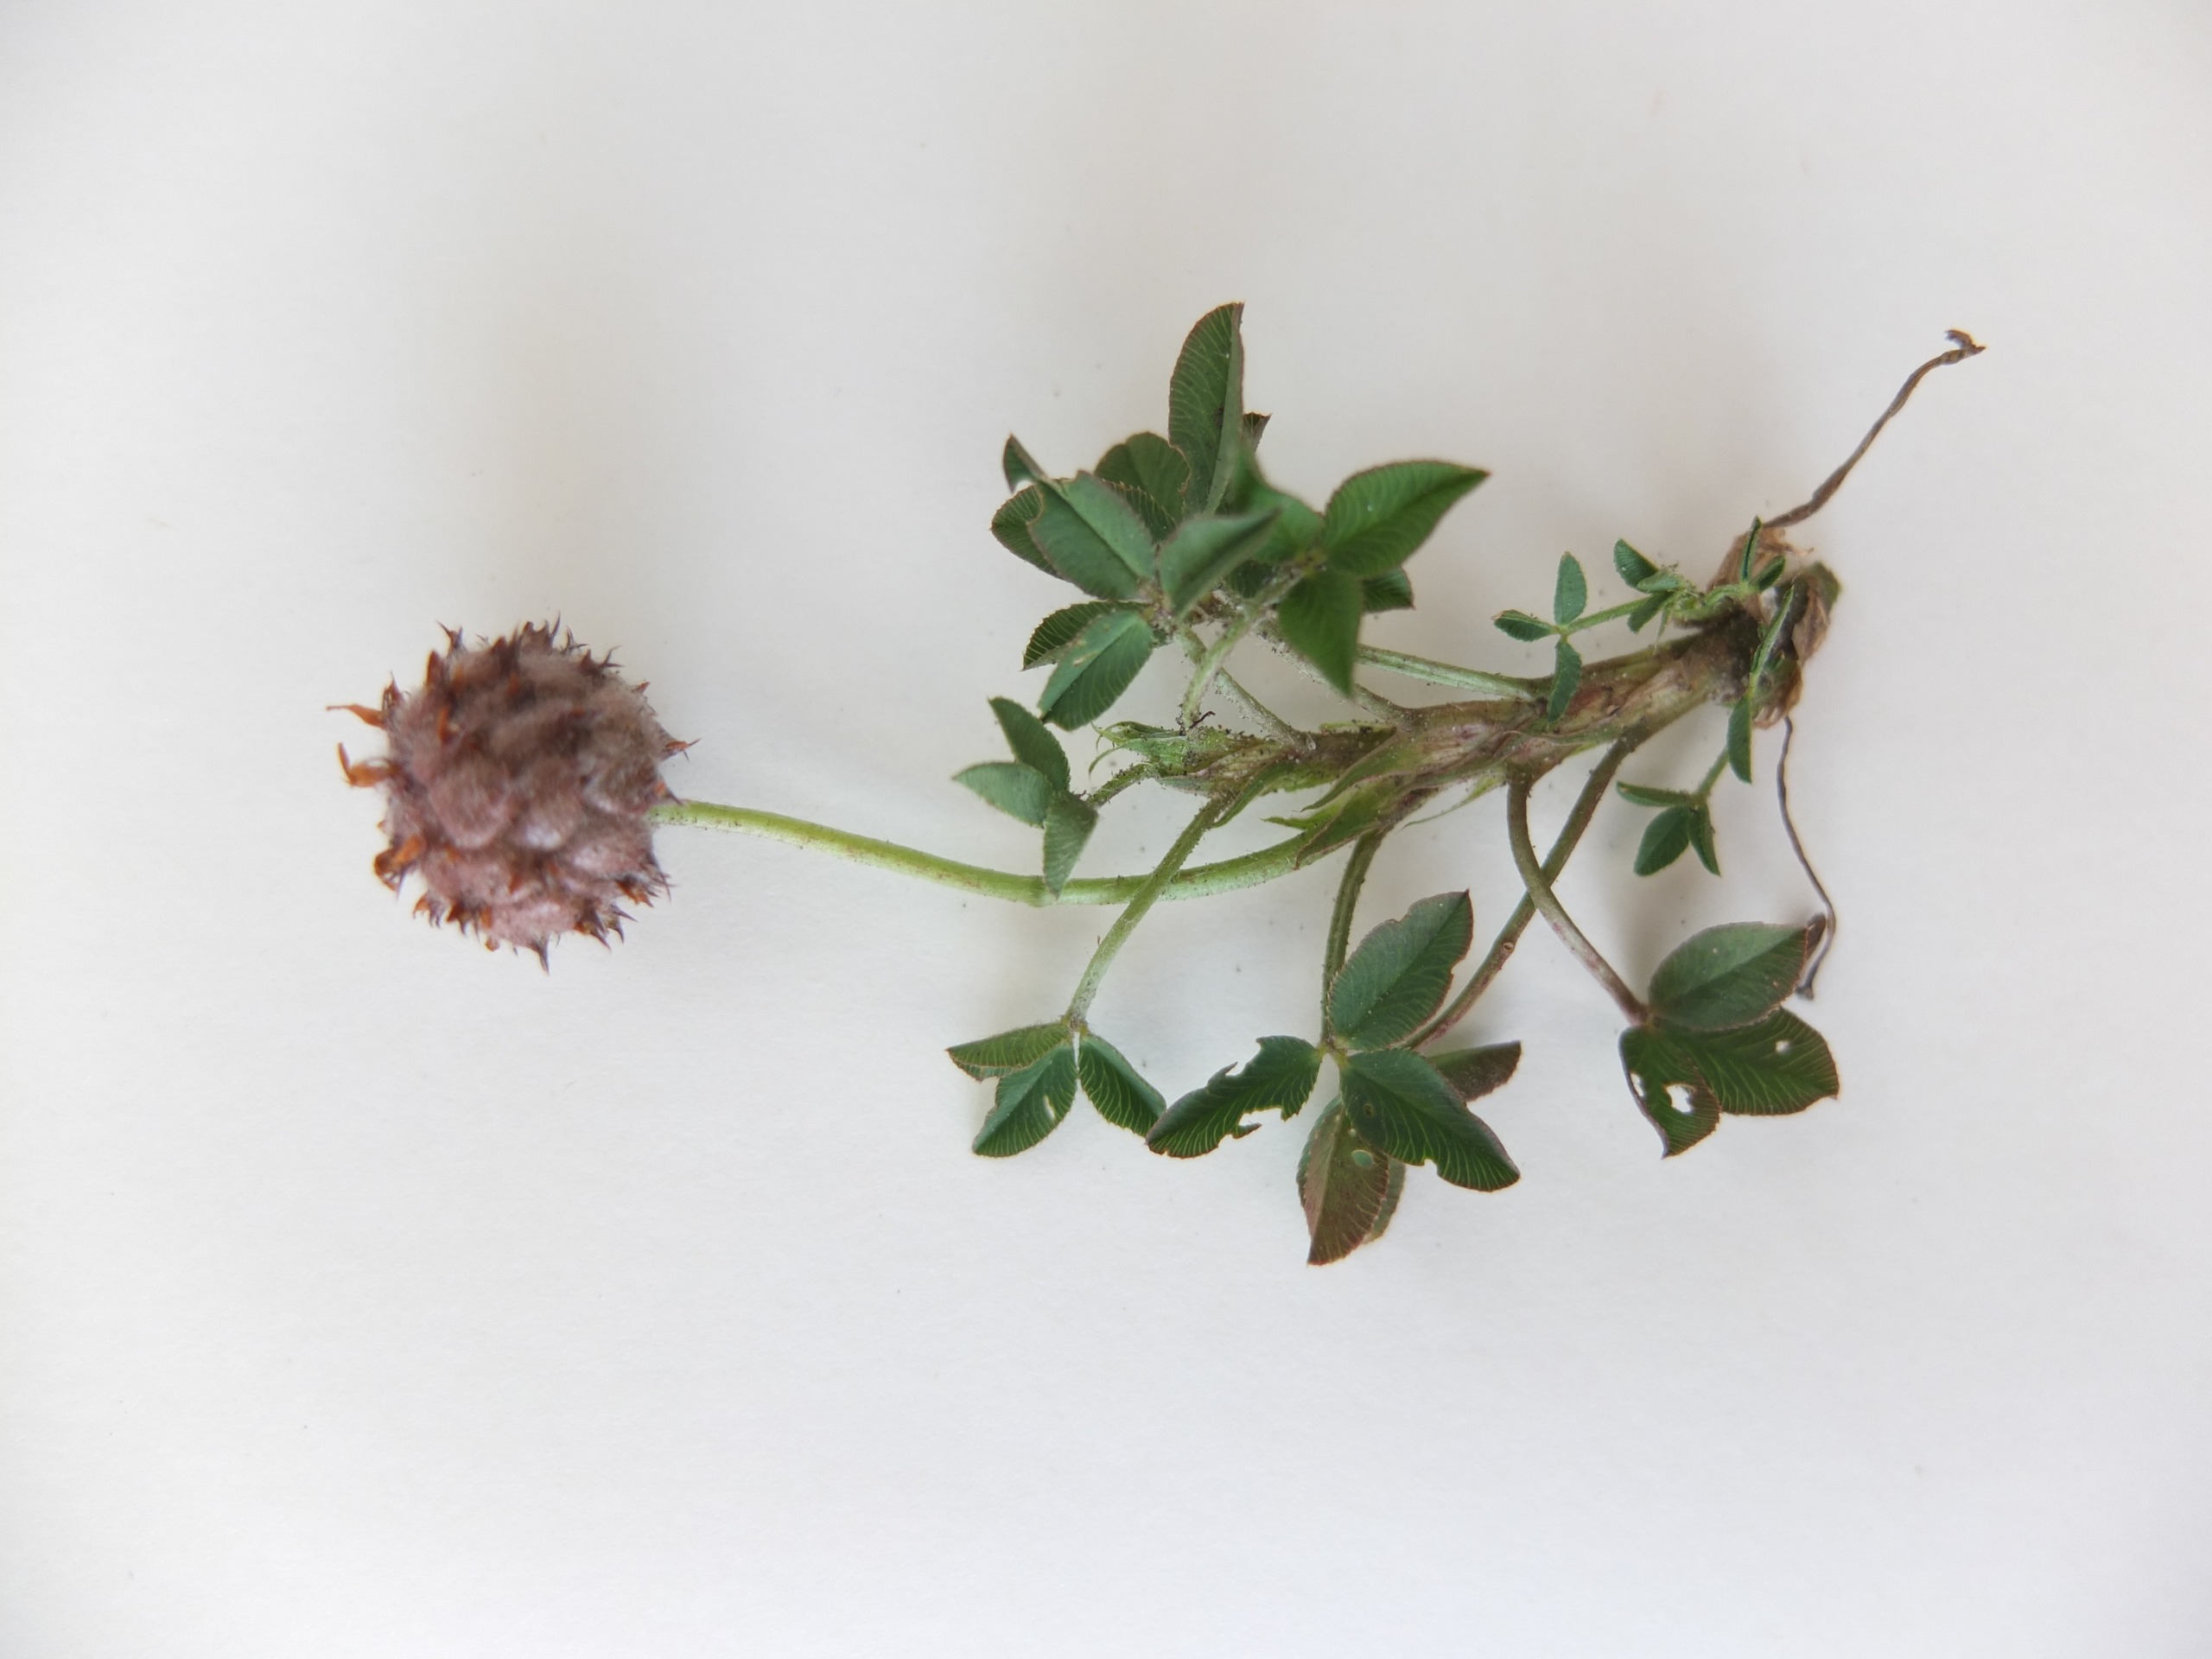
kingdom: Plantae
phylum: Tracheophyta
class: Magnoliopsida
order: Fabales
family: Fabaceae
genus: Trifolium
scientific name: Trifolium fragiferum
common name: Jordbær-kløver
